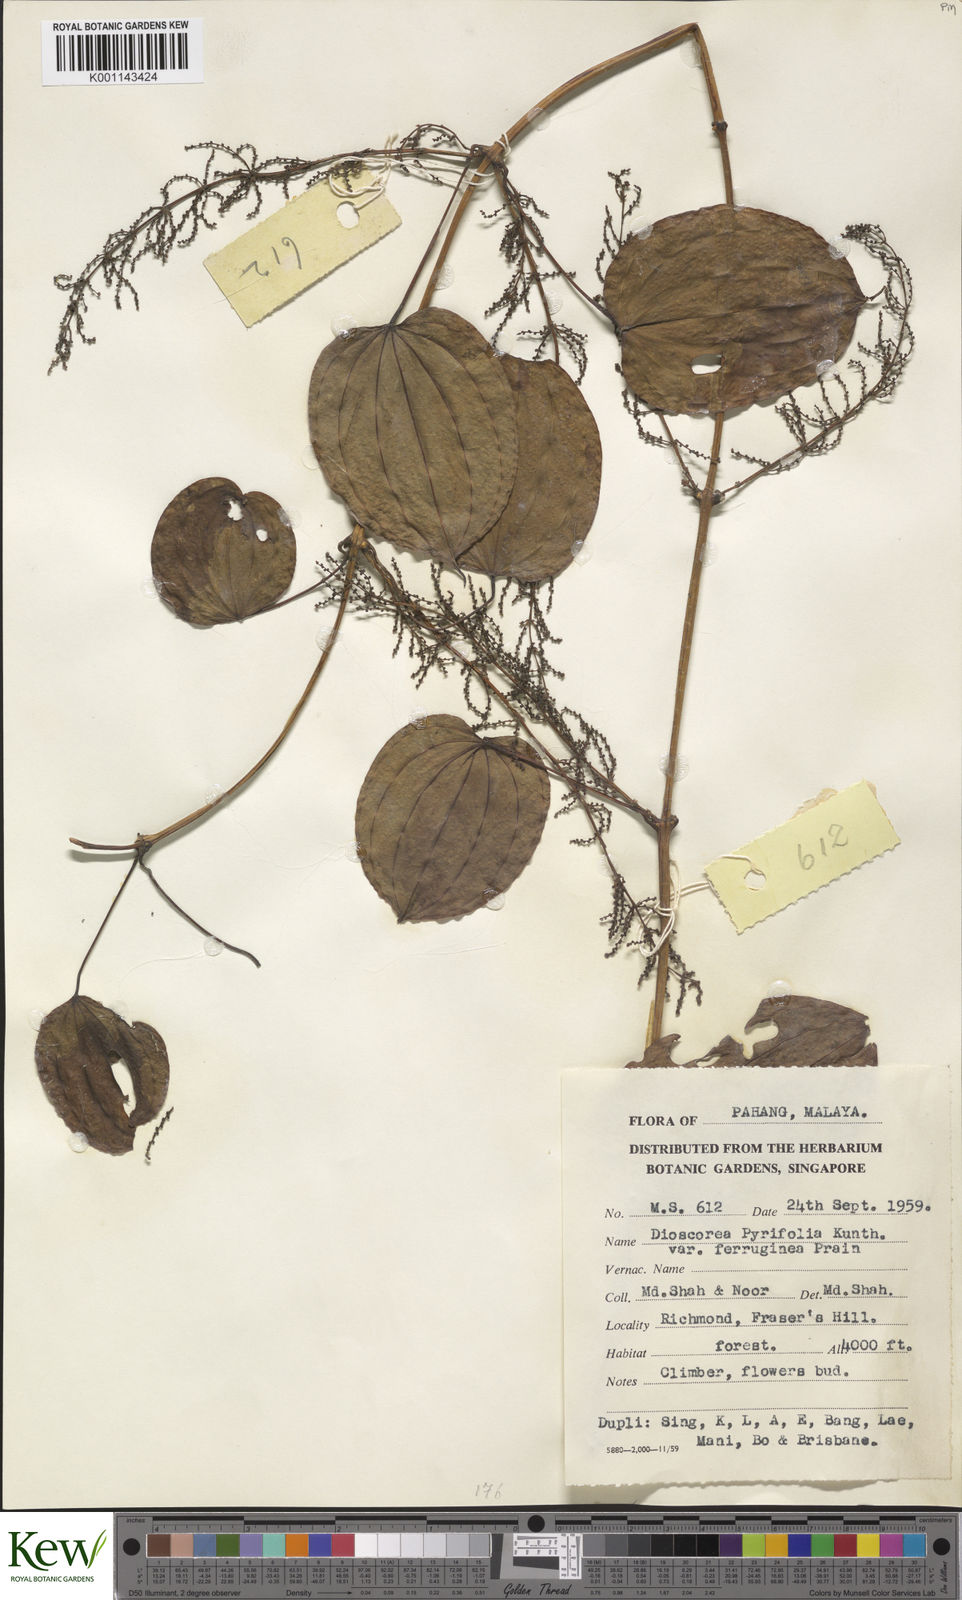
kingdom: Plantae
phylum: Tracheophyta
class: Liliopsida
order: Dioscoreales
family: Dioscoreaceae
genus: Dioscorea
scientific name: Dioscorea pyrifolia
